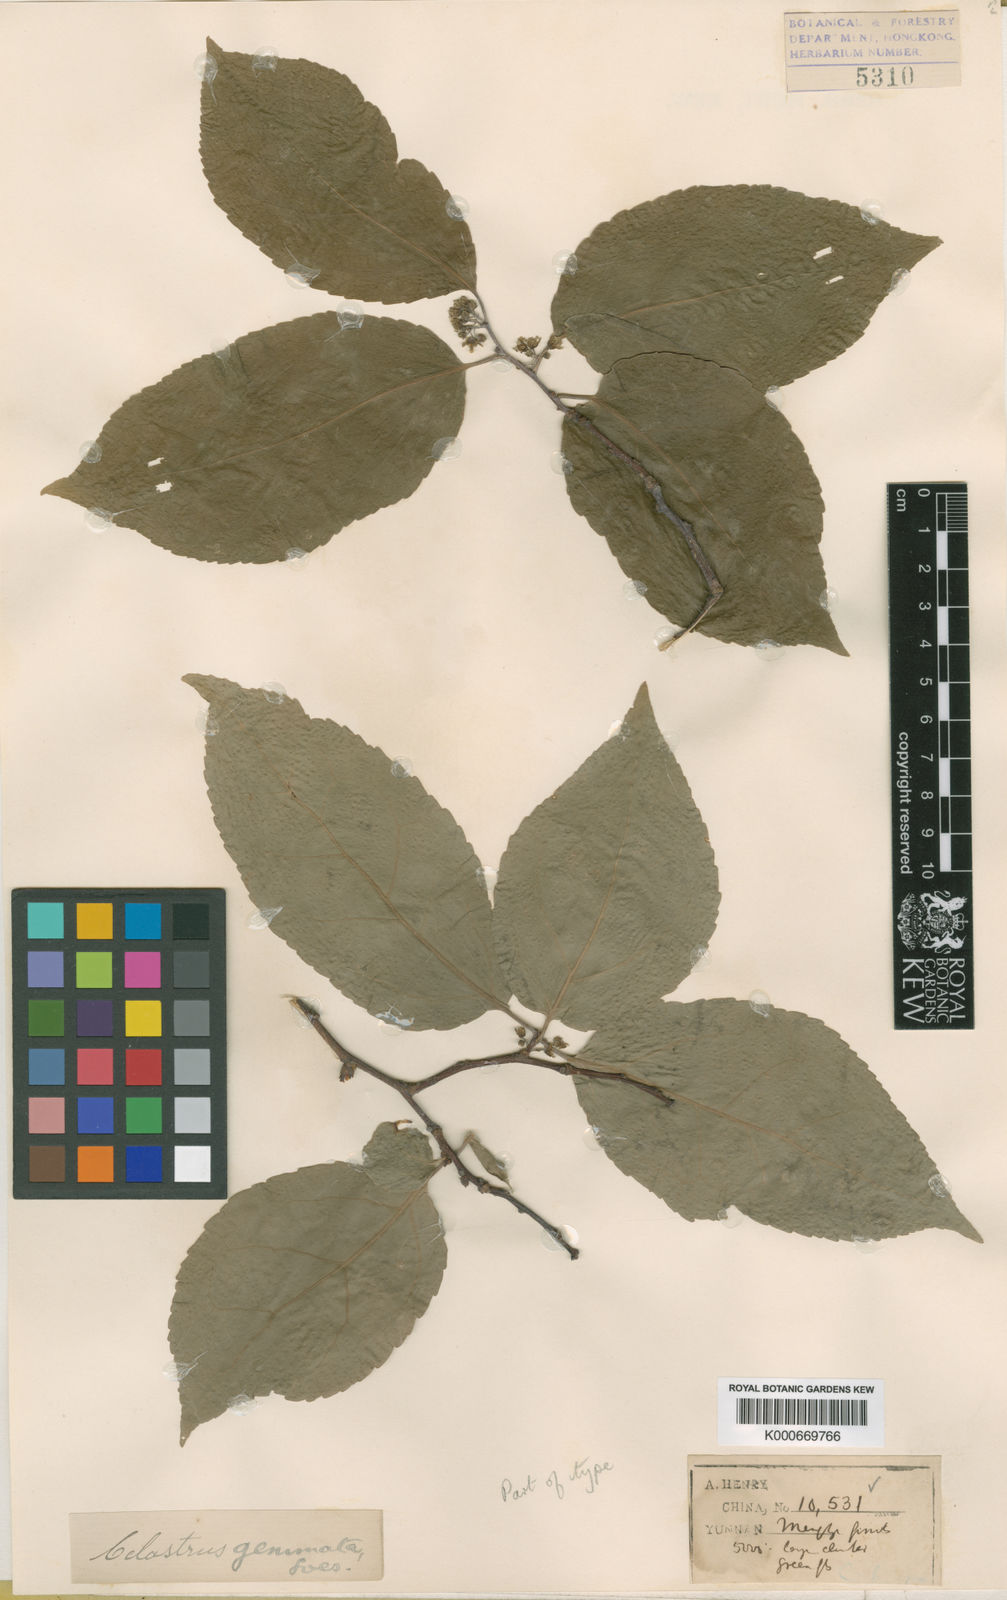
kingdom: Plantae
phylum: Tracheophyta
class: Magnoliopsida
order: Celastrales
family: Celastraceae
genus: Celastrus
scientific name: Celastrus gemmatus
